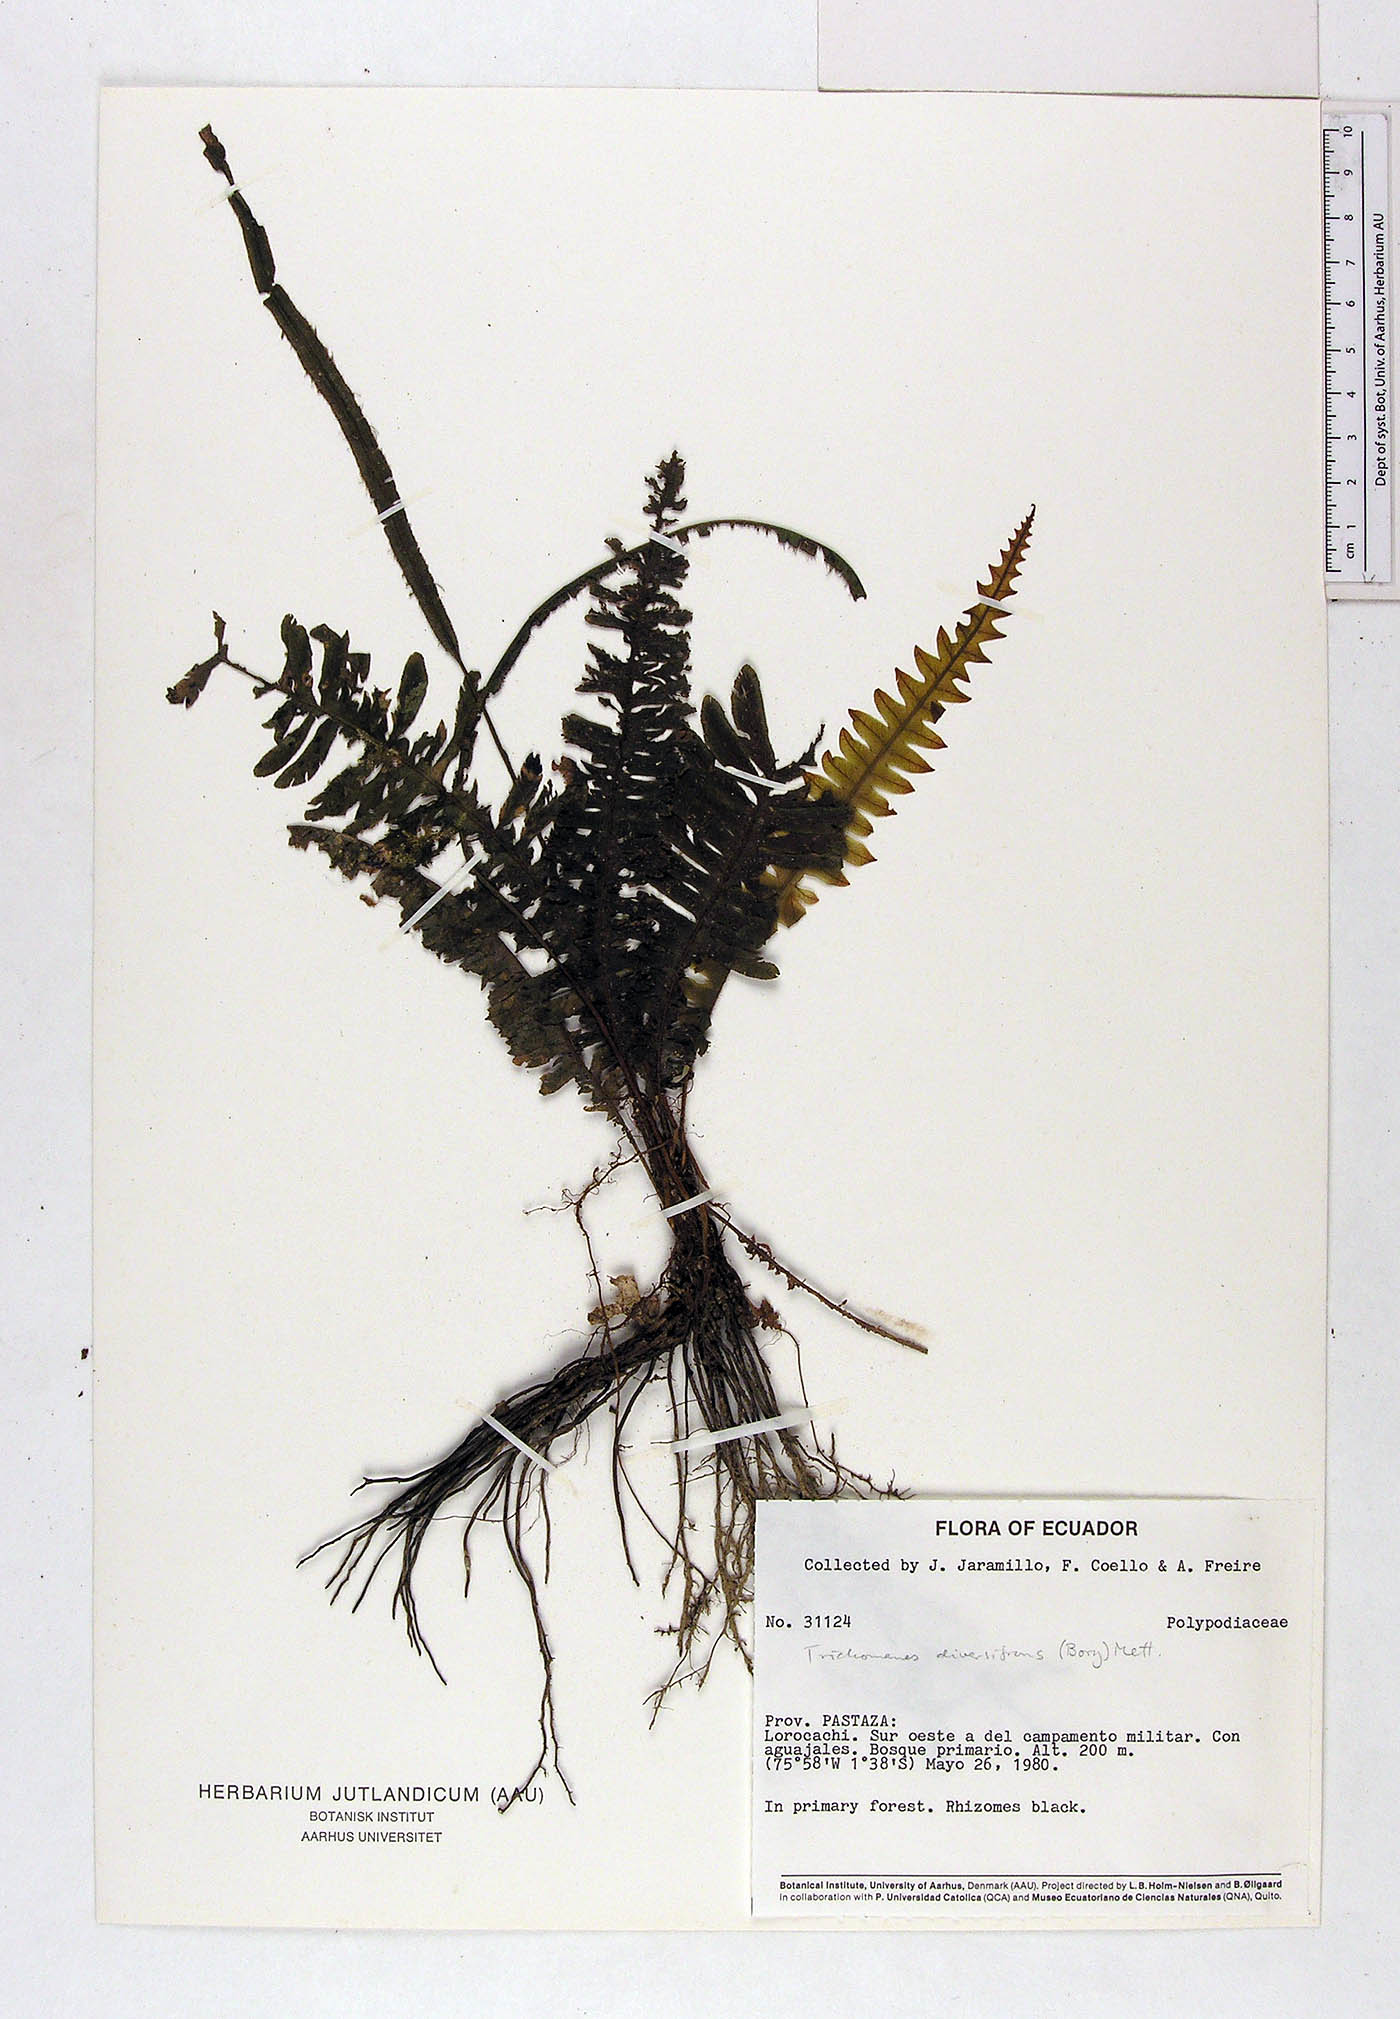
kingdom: Plantae
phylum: Tracheophyta
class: Polypodiopsida
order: Hymenophyllales
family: Hymenophyllaceae
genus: Trichomanes
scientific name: Trichomanes diversifrons
